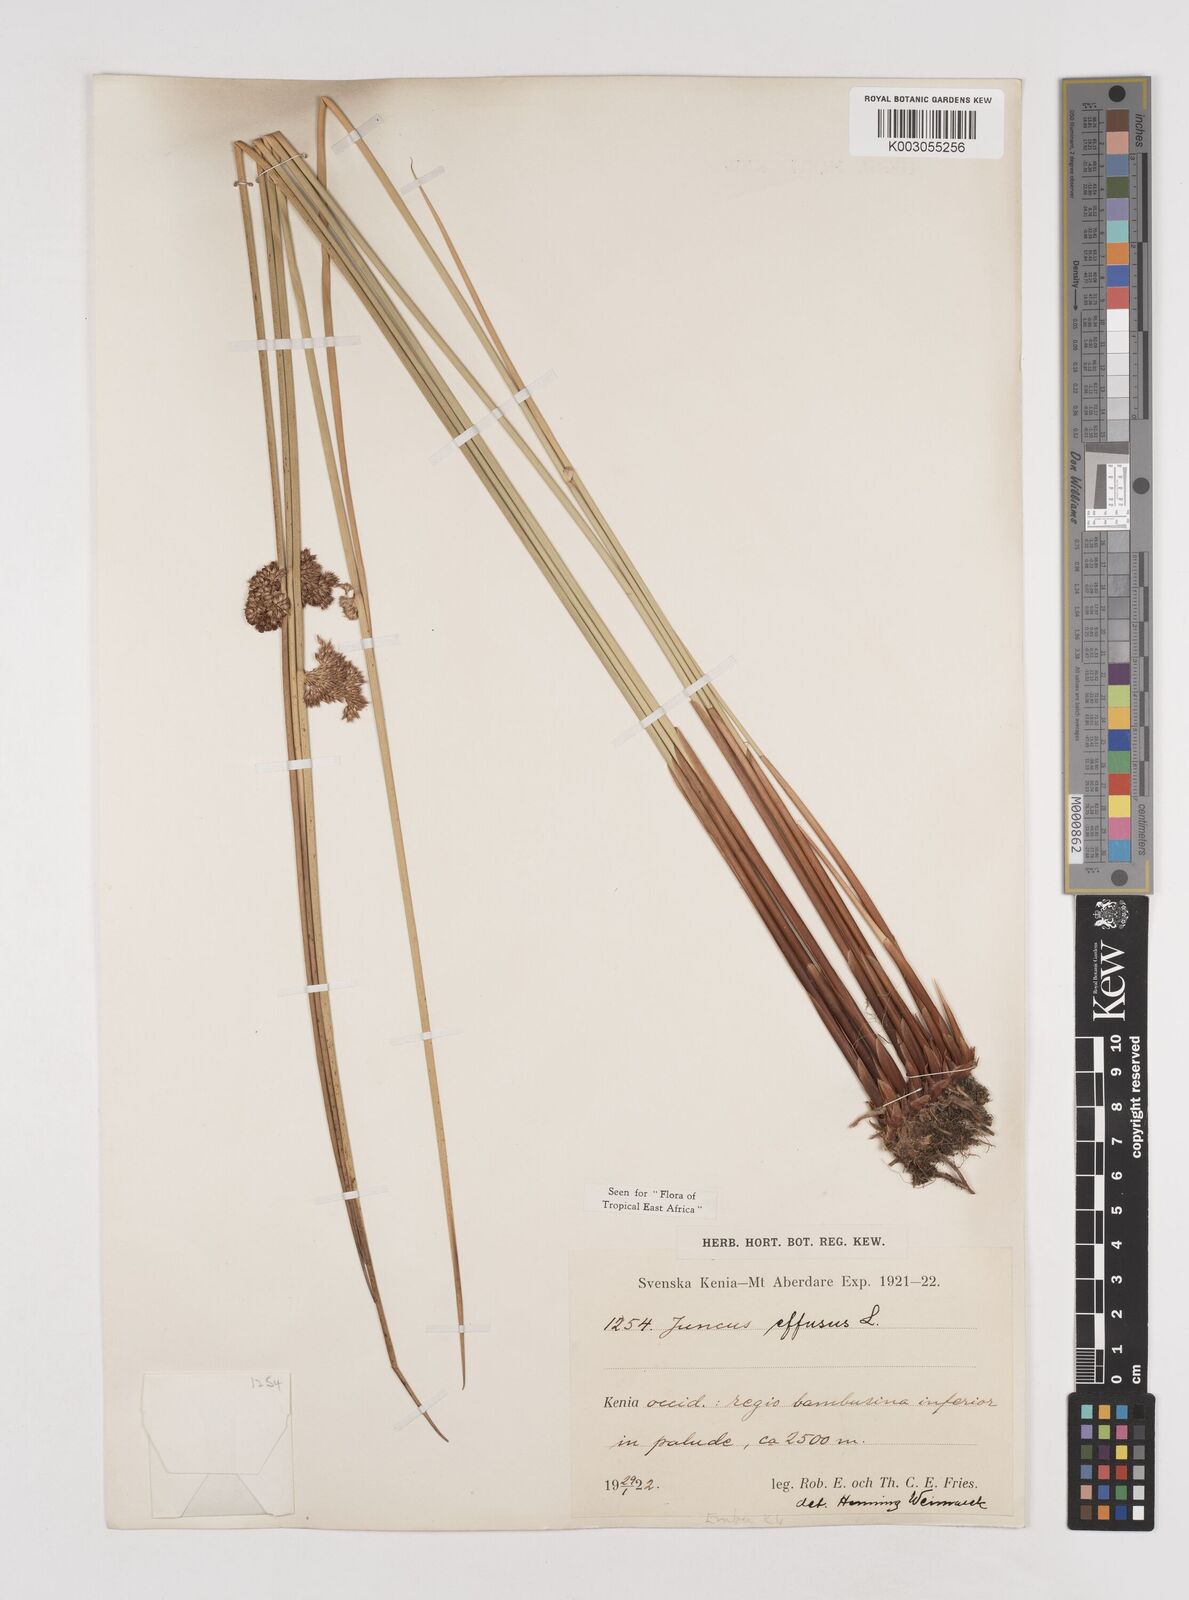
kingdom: Plantae
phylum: Tracheophyta
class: Liliopsida
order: Poales
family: Juncaceae
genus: Juncus
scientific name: Juncus effusus
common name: Soft rush
